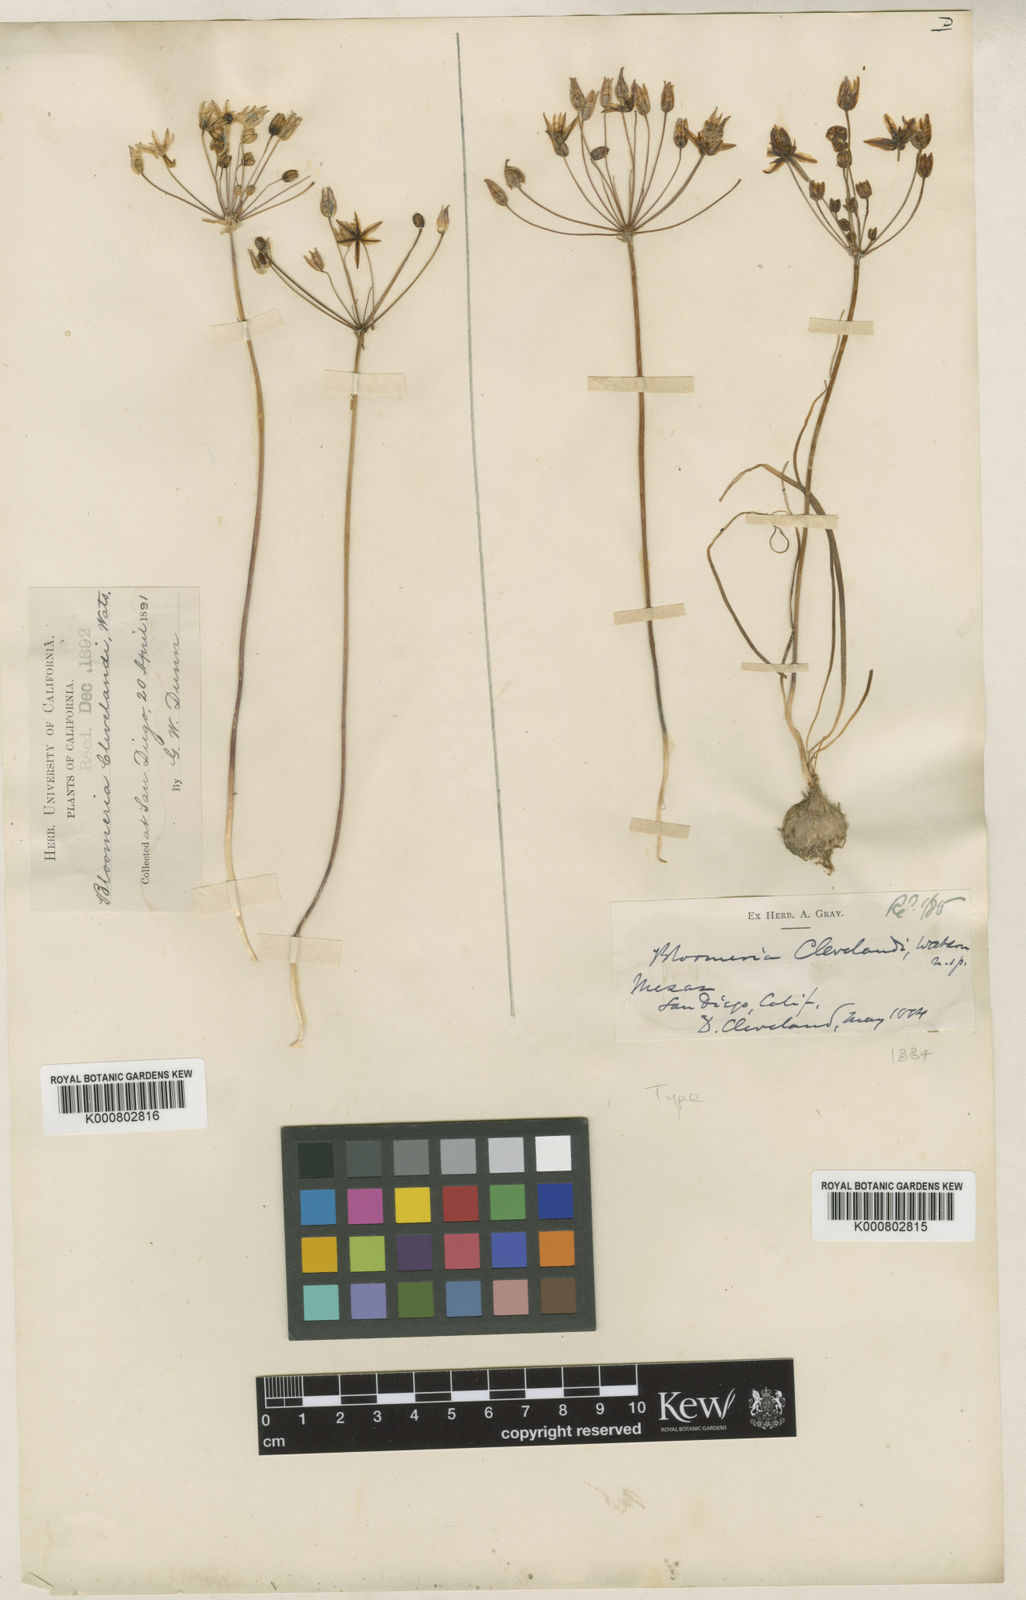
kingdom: Plantae
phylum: Tracheophyta
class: Liliopsida
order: Asparagales
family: Asparagaceae
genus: Bloomeria
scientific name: Bloomeria clevelandii
